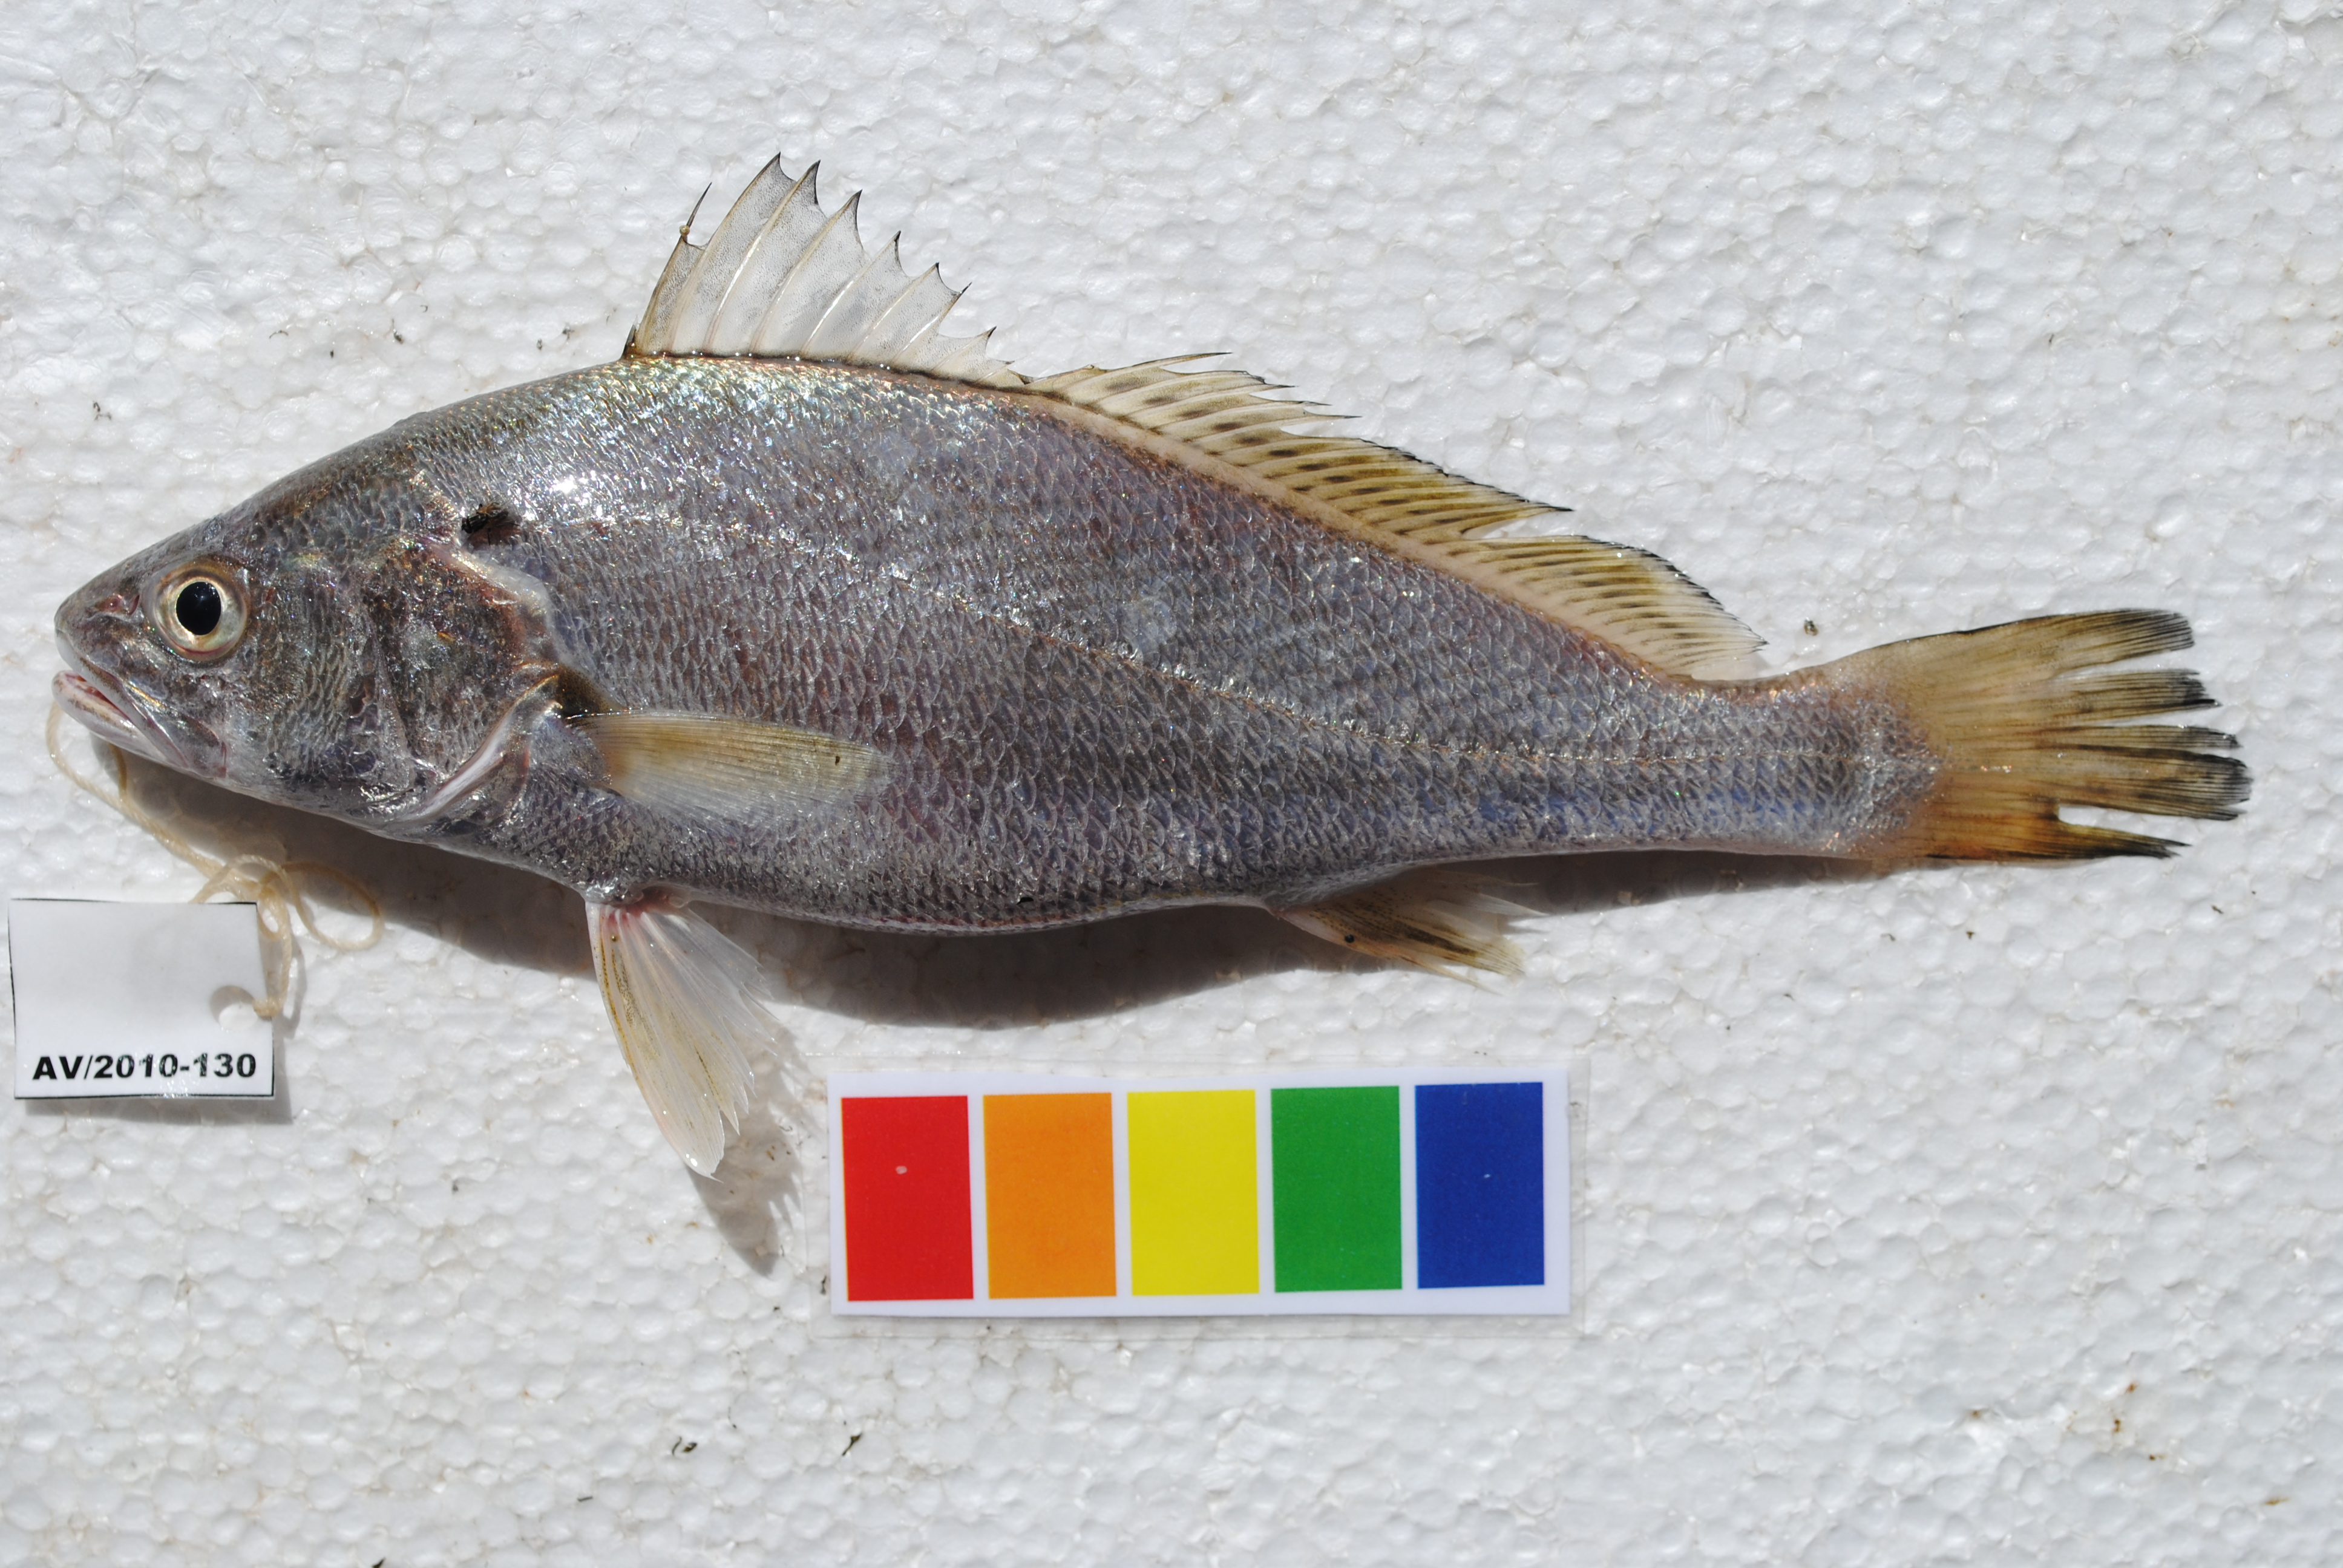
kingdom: Animalia
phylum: Chordata
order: Perciformes
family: Sciaenidae
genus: Argyrosomus
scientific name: Argyrosomus
